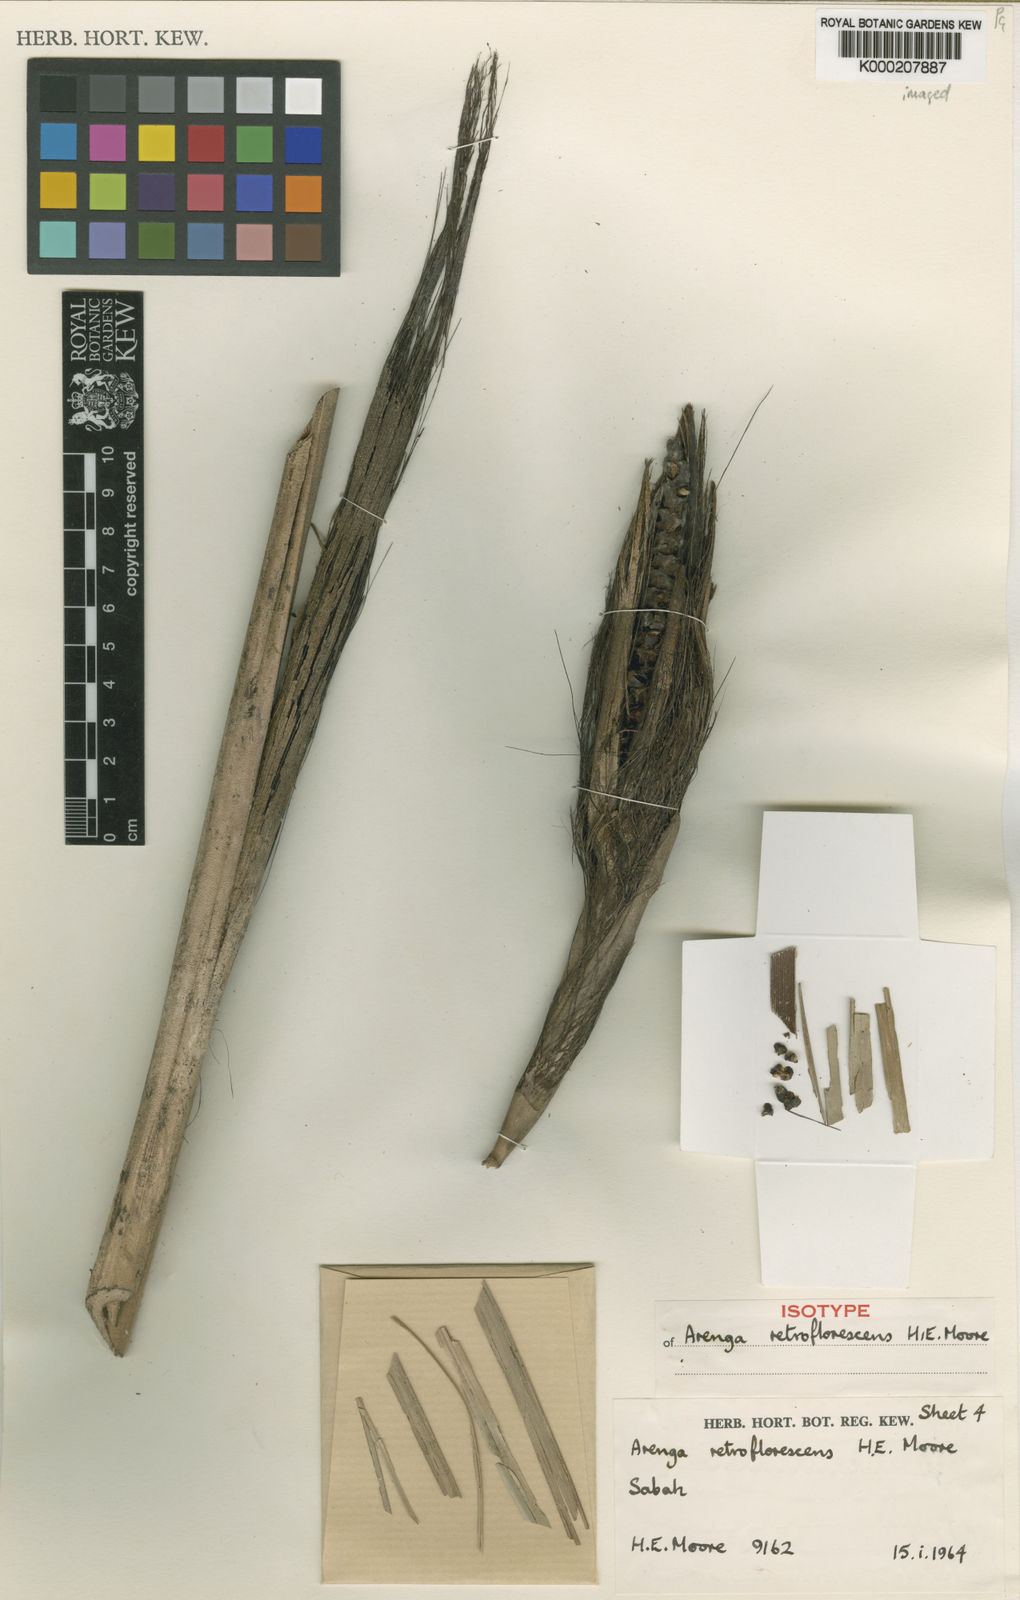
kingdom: Plantae
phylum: Tracheophyta
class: Liliopsida
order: Arecales
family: Arecaceae
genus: Arenga
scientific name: Arenga retroflorescens
